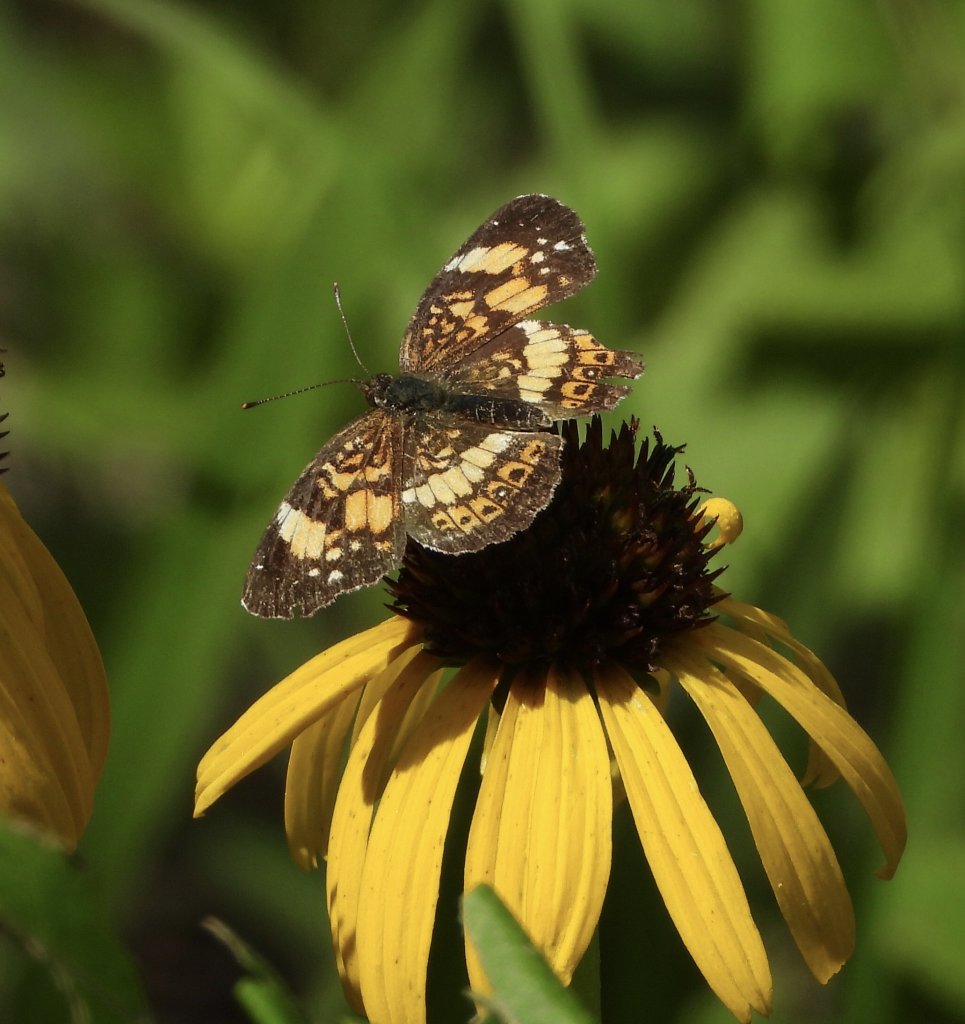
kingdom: Animalia
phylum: Arthropoda
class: Insecta
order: Lepidoptera
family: Nymphalidae
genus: Chlosyne
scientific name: Chlosyne nycteis
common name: Silvery Checkerspot
